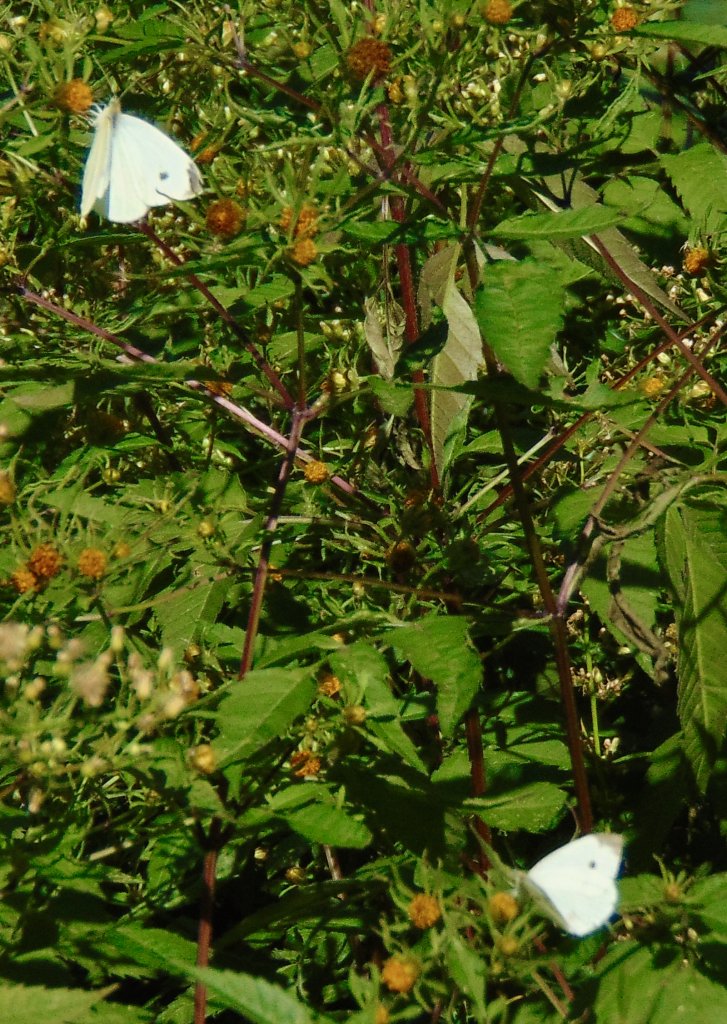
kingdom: Animalia
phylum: Arthropoda
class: Insecta
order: Lepidoptera
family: Pieridae
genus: Pieris
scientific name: Pieris rapae
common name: Cabbage White
